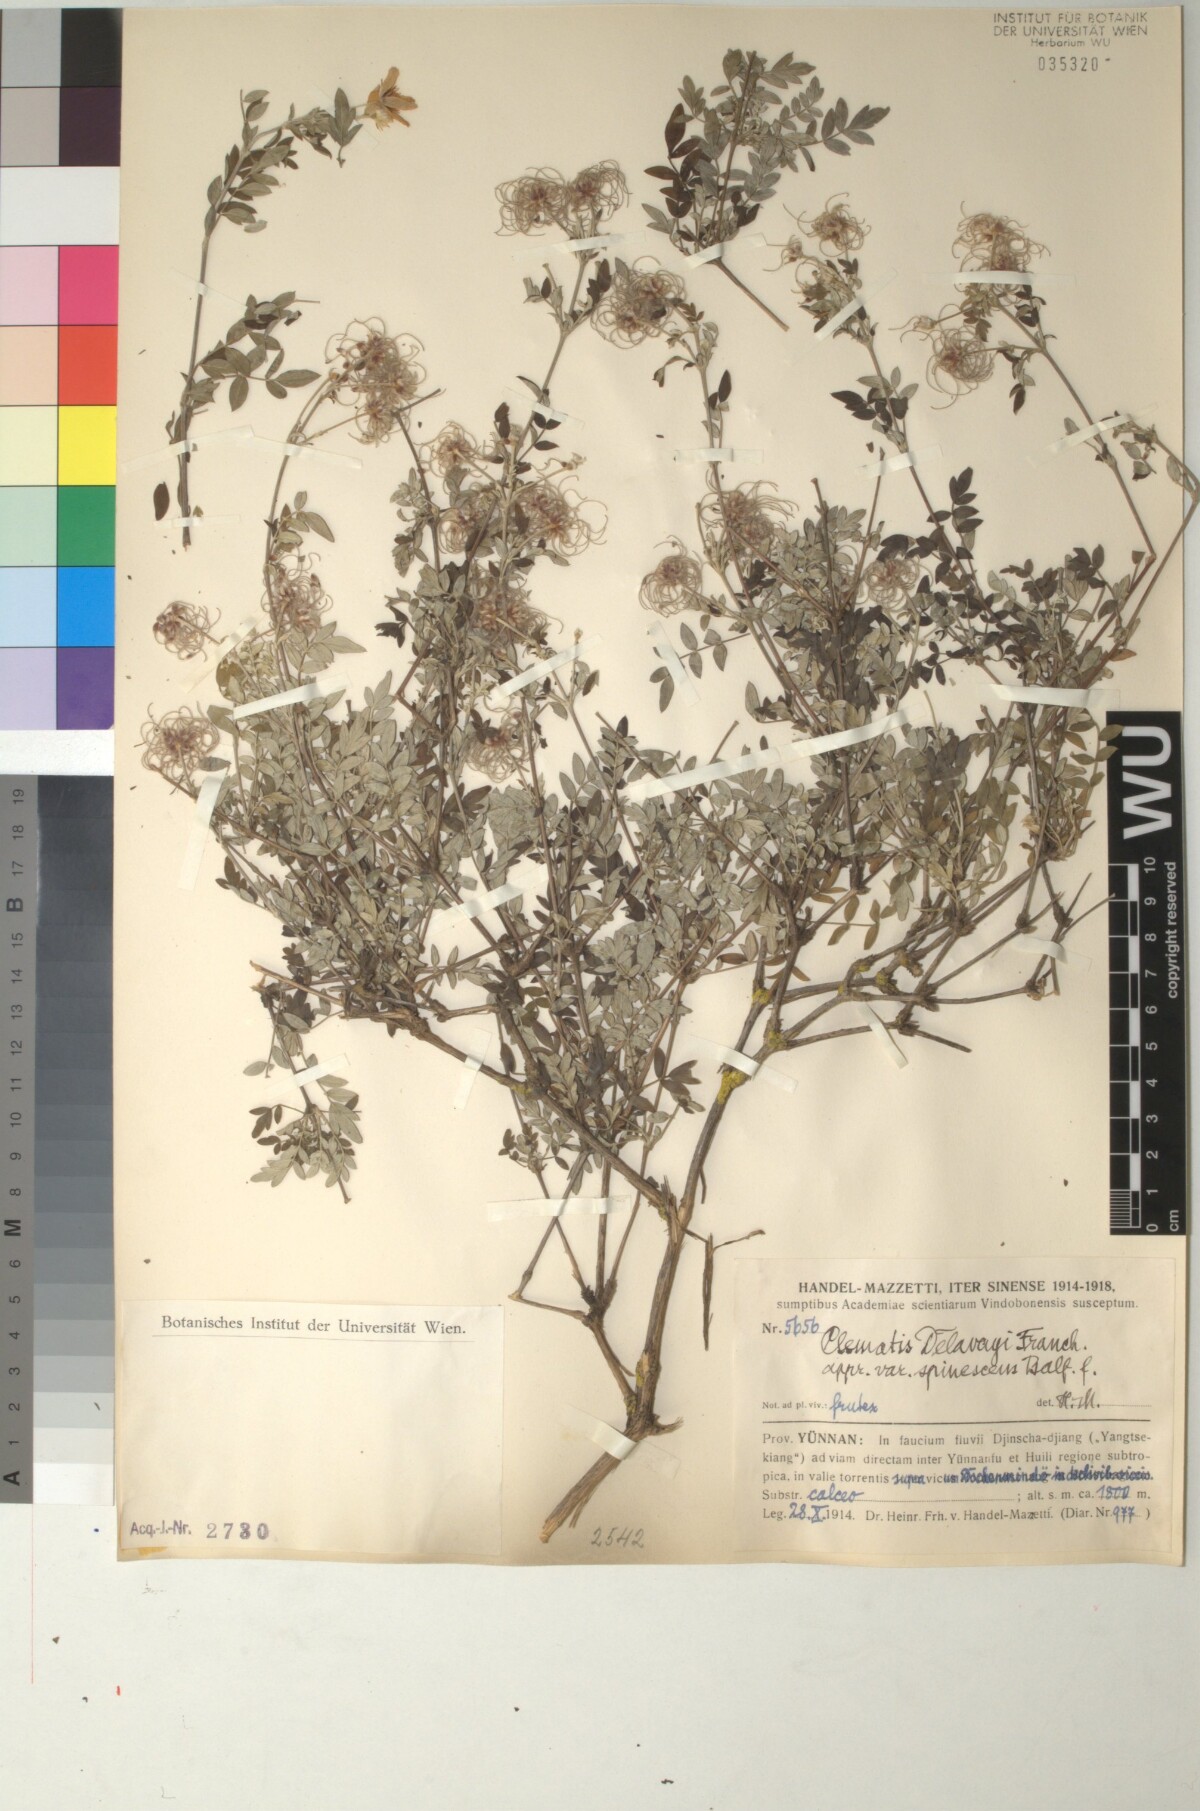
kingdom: Plantae
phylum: Tracheophyta
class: Magnoliopsida
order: Ranunculales
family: Ranunculaceae
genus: Clematis
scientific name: Clematis delavayi
